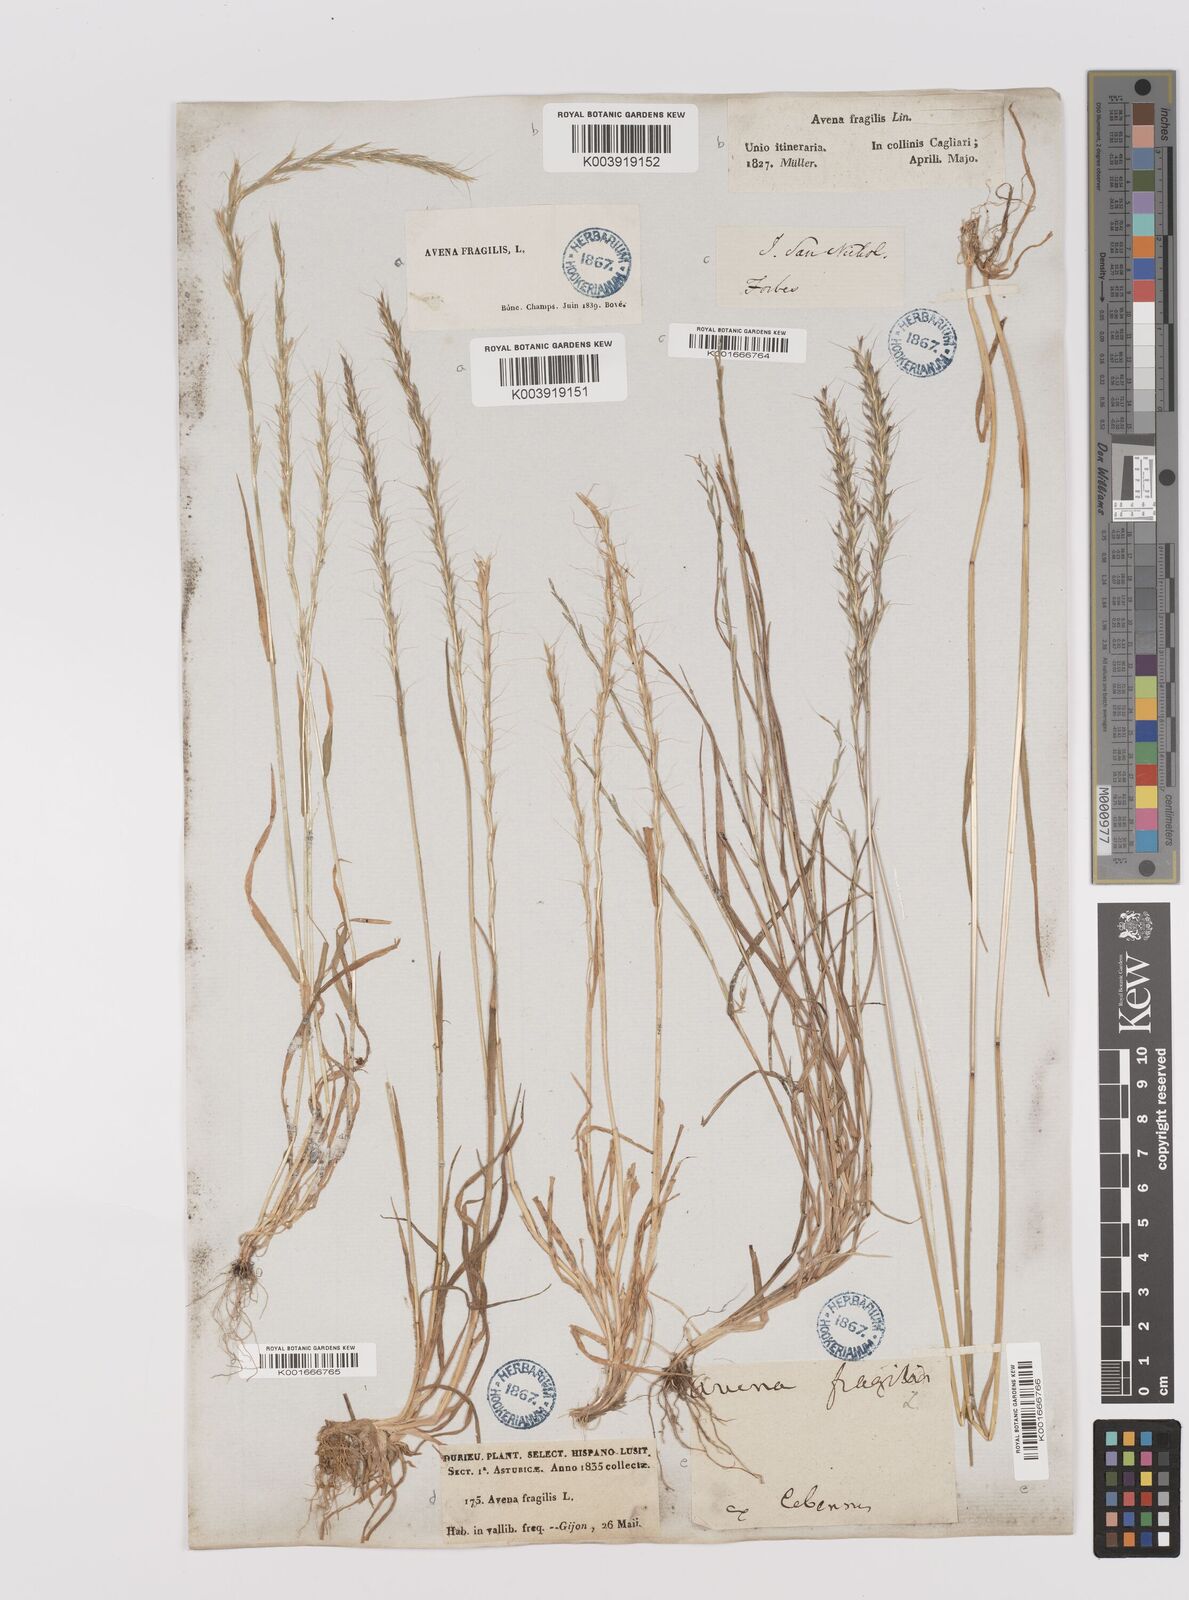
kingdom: Plantae
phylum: Tracheophyta
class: Liliopsida
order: Poales
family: Poaceae
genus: Gaudinia
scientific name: Gaudinia fragilis
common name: French oat-grass
